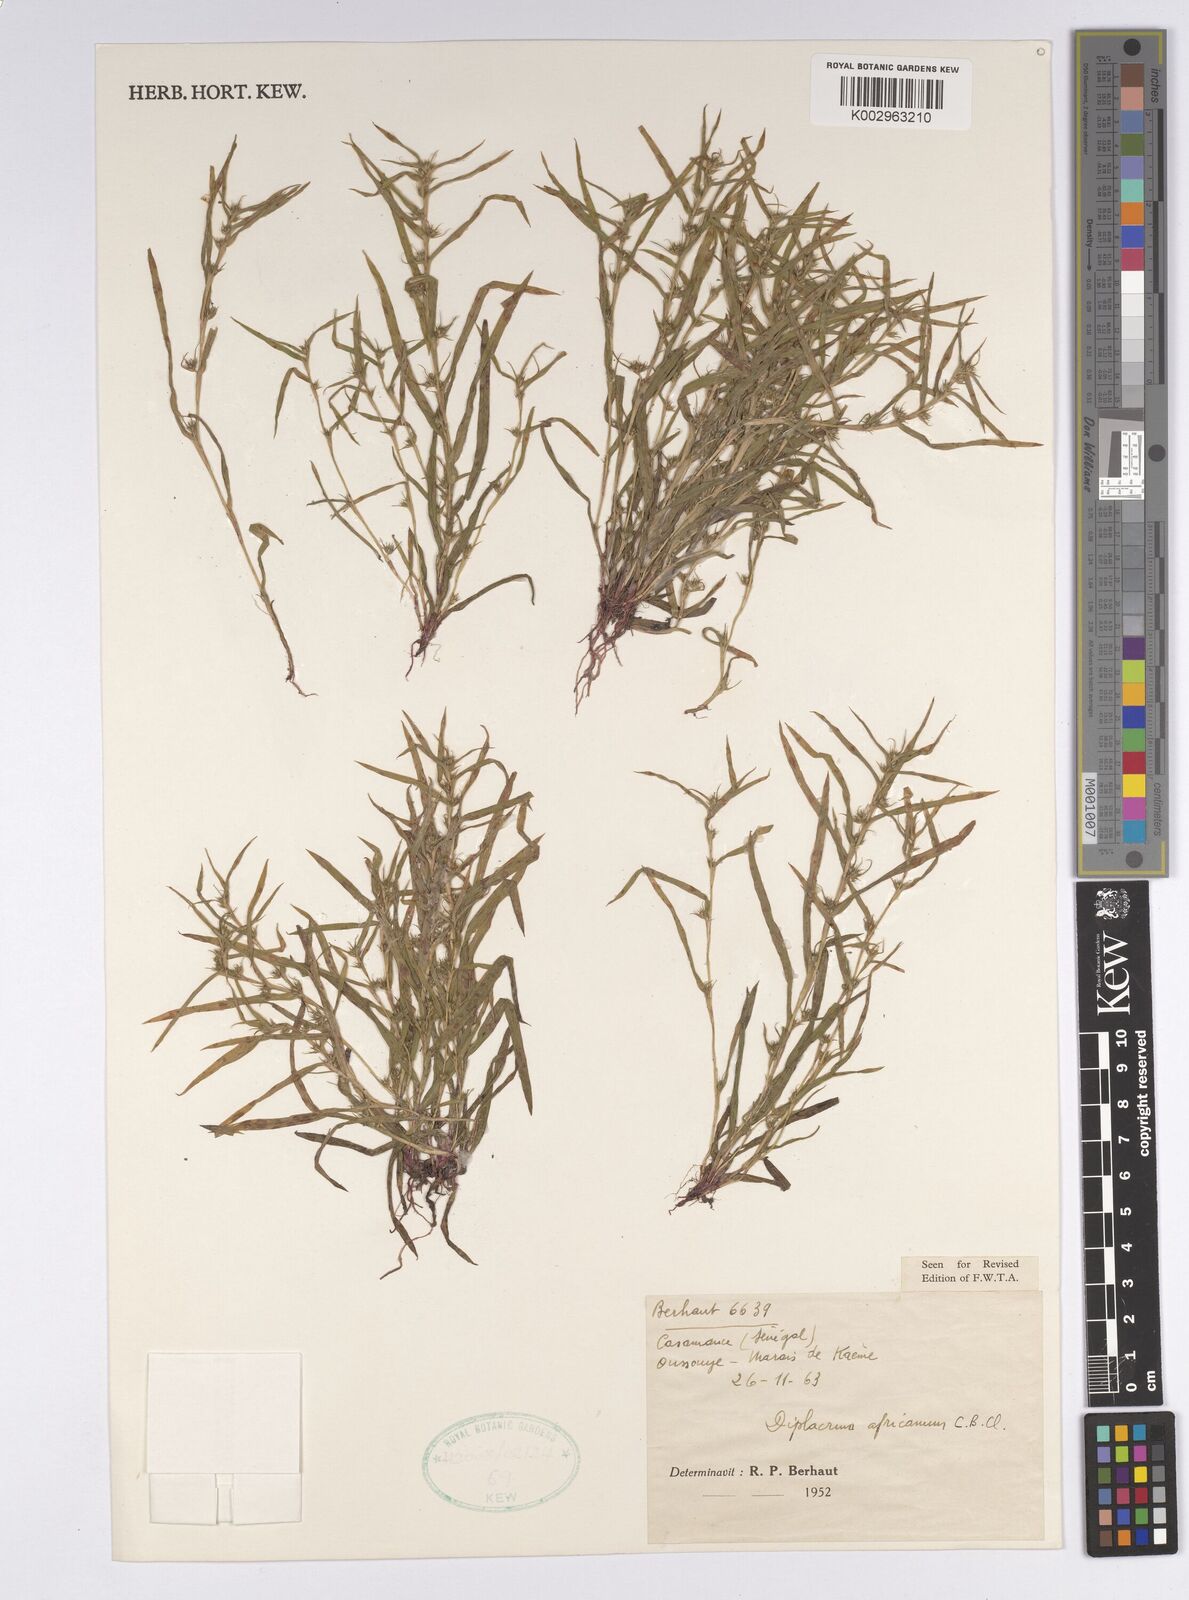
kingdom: Plantae
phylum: Tracheophyta
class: Liliopsida
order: Poales
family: Cyperaceae
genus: Diplacrum
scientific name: Diplacrum africanum
